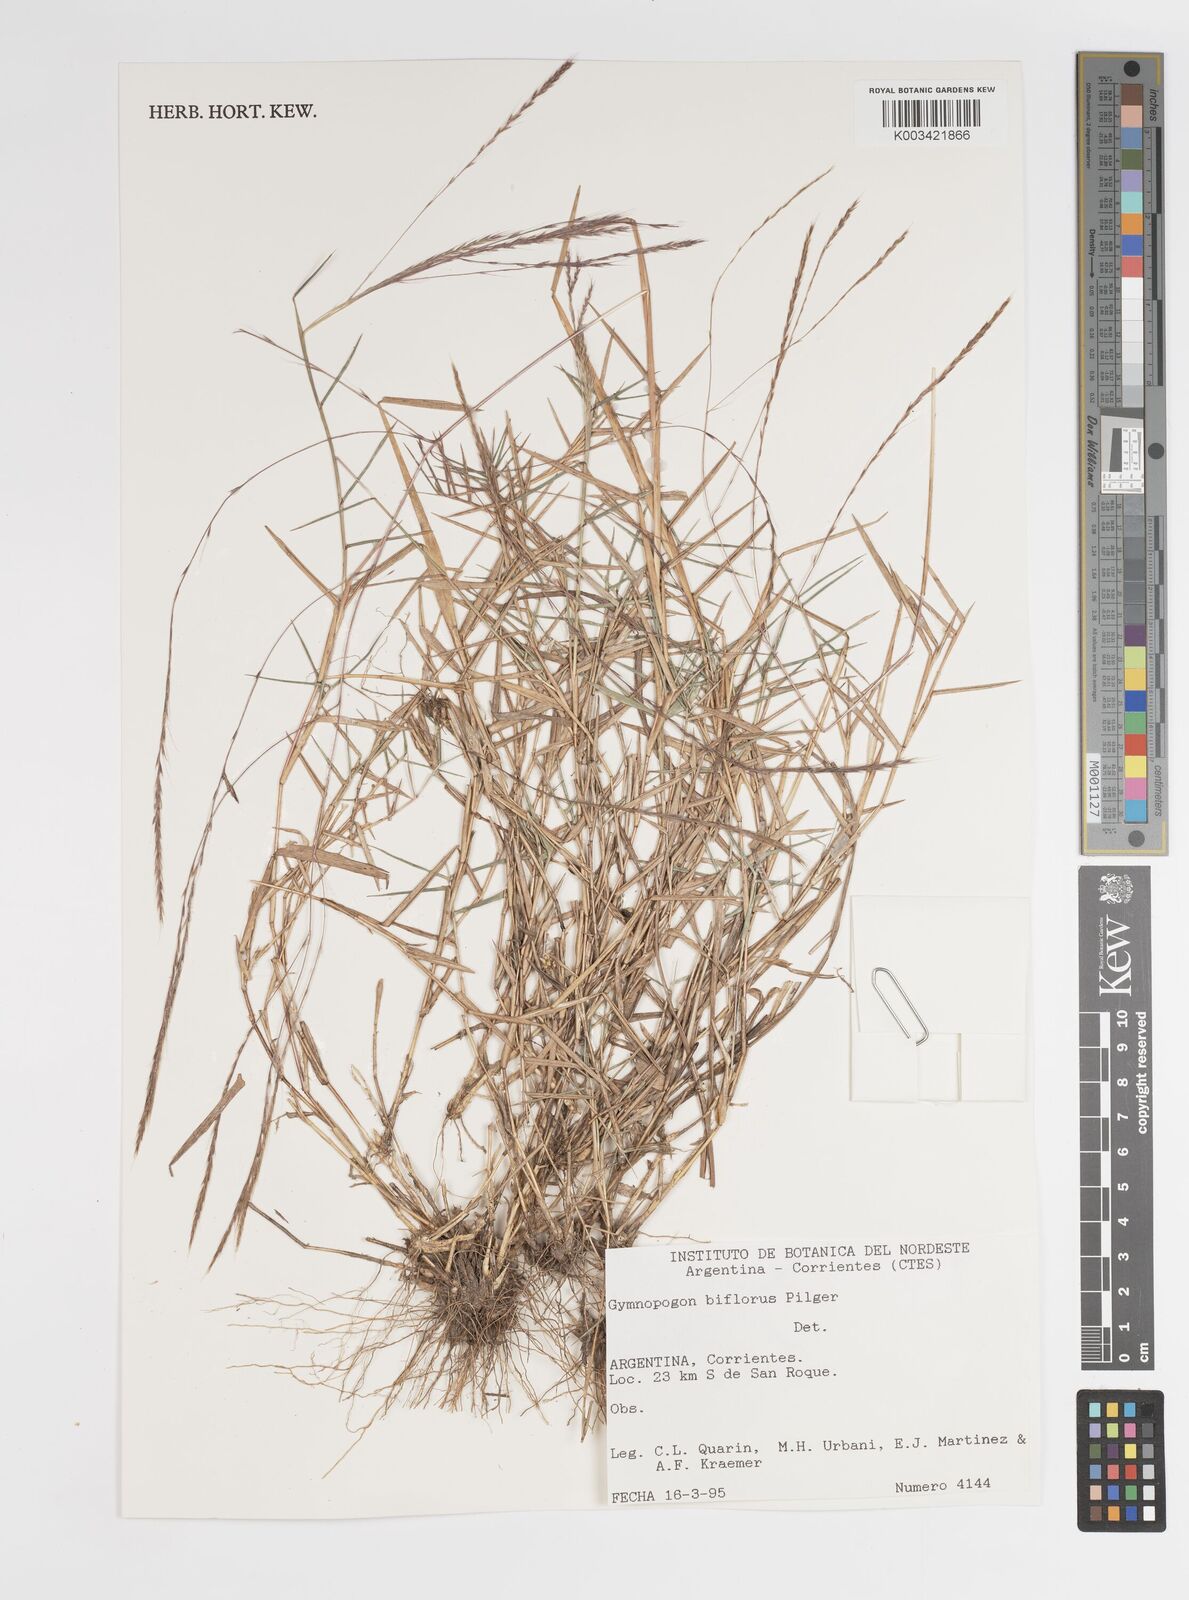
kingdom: Plantae
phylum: Tracheophyta
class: Liliopsida
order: Poales
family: Poaceae
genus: Gymnopogon
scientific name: Gymnopogon spicatus
